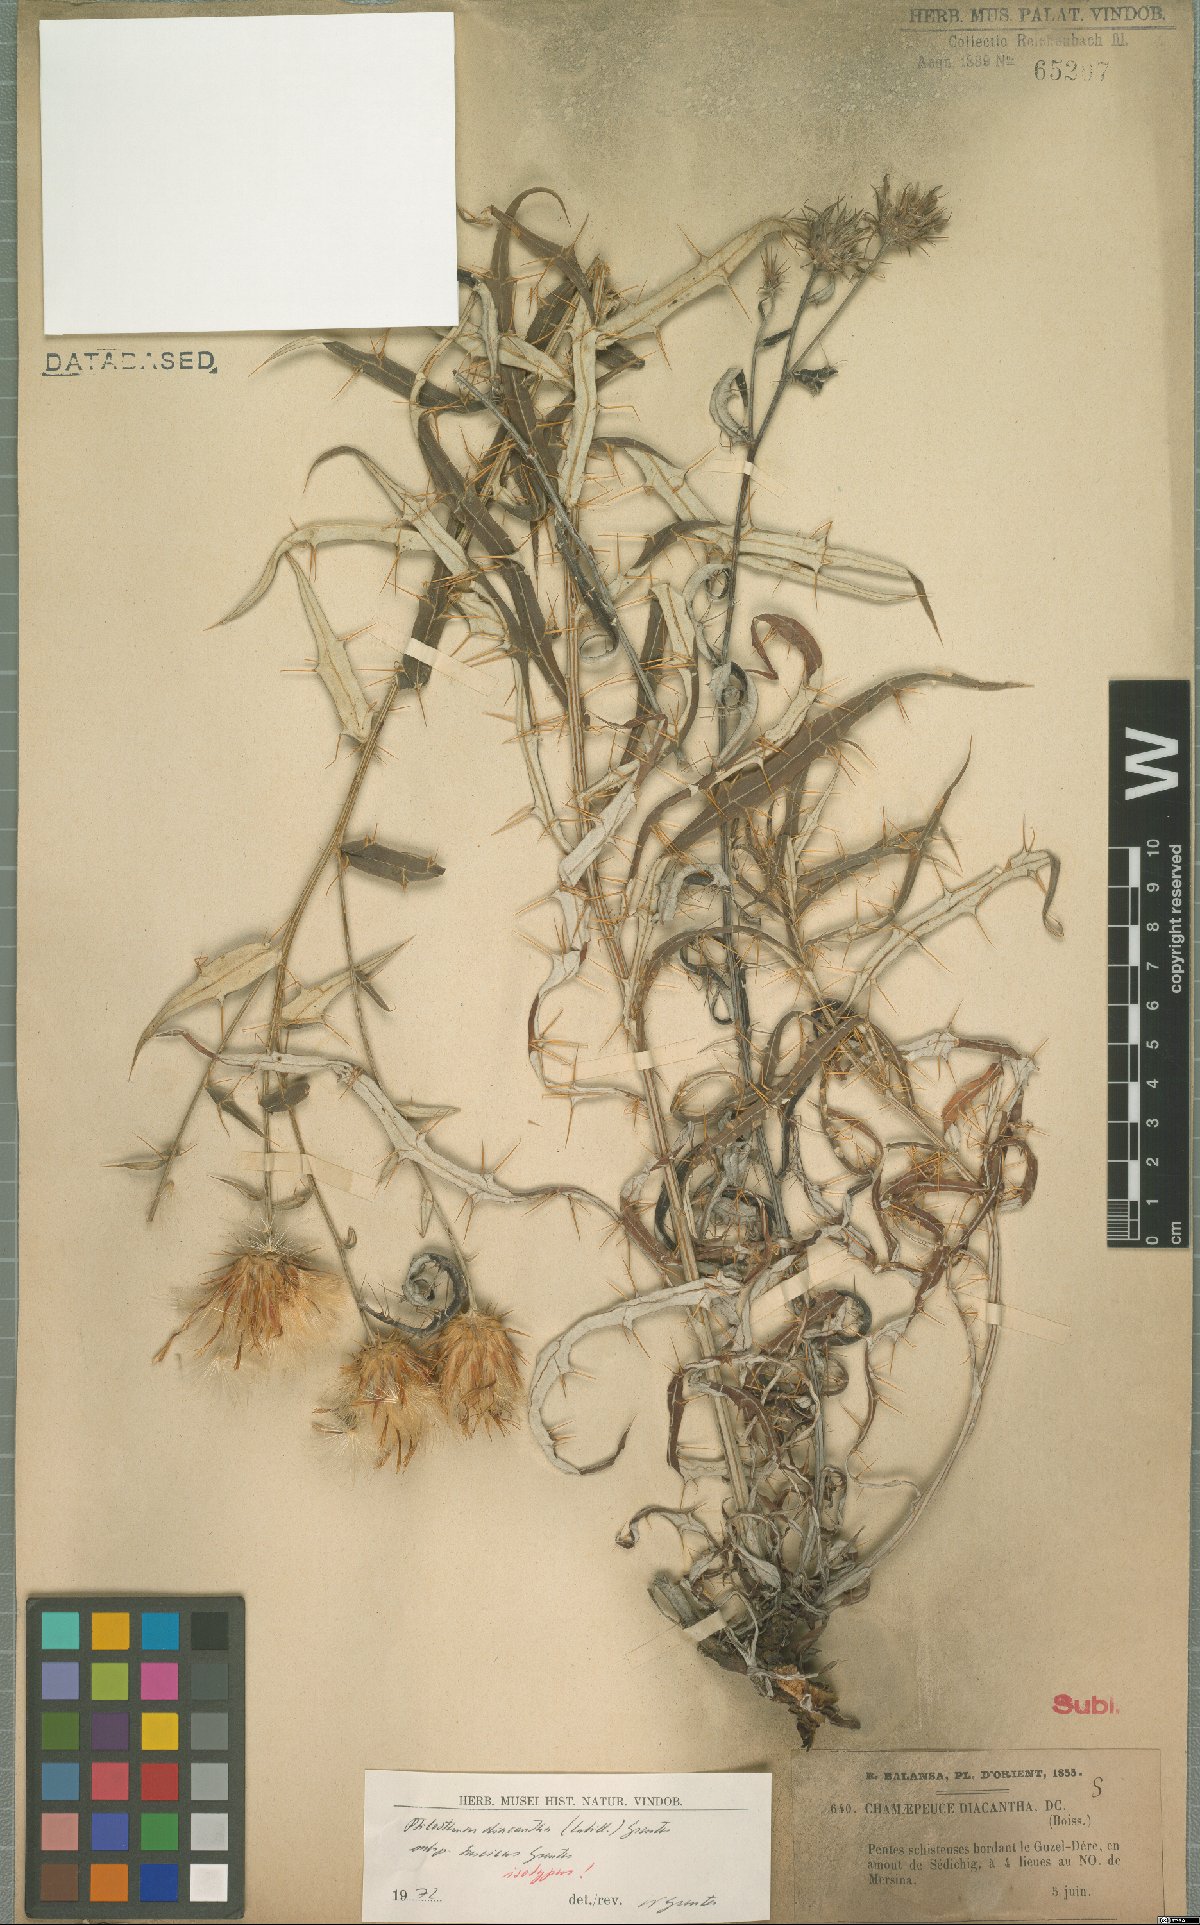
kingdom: Plantae
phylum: Tracheophyta
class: Magnoliopsida
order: Asterales
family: Asteraceae
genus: Ptilostemon
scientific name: Ptilostemon diacanthus
